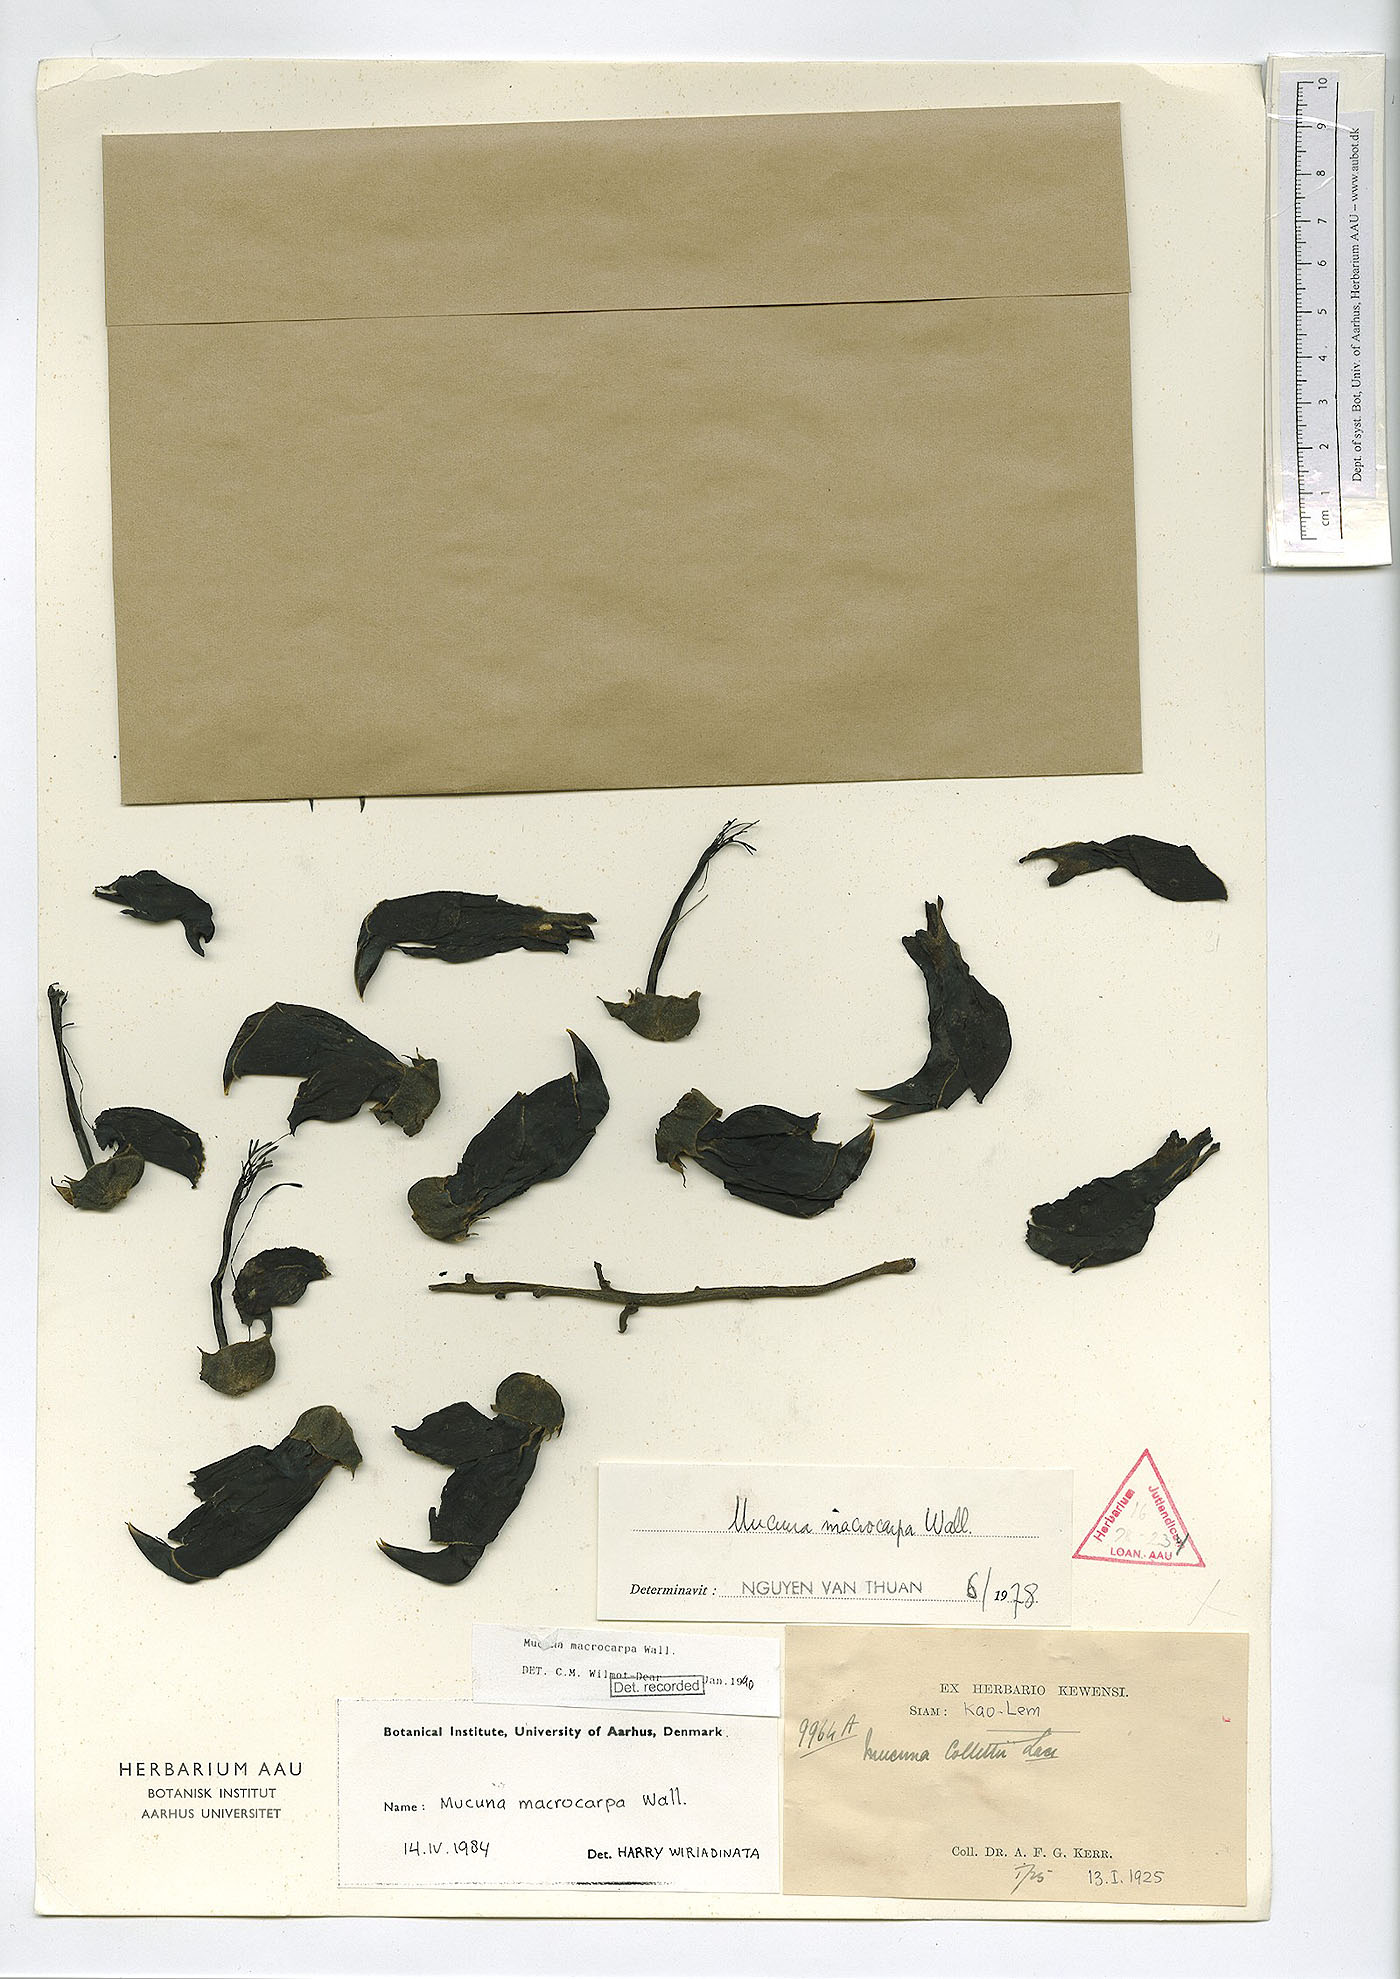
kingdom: Plantae
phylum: Tracheophyta
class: Magnoliopsida
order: Fabales
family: Fabaceae
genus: Mucuna
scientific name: Mucuna macrocarpa
